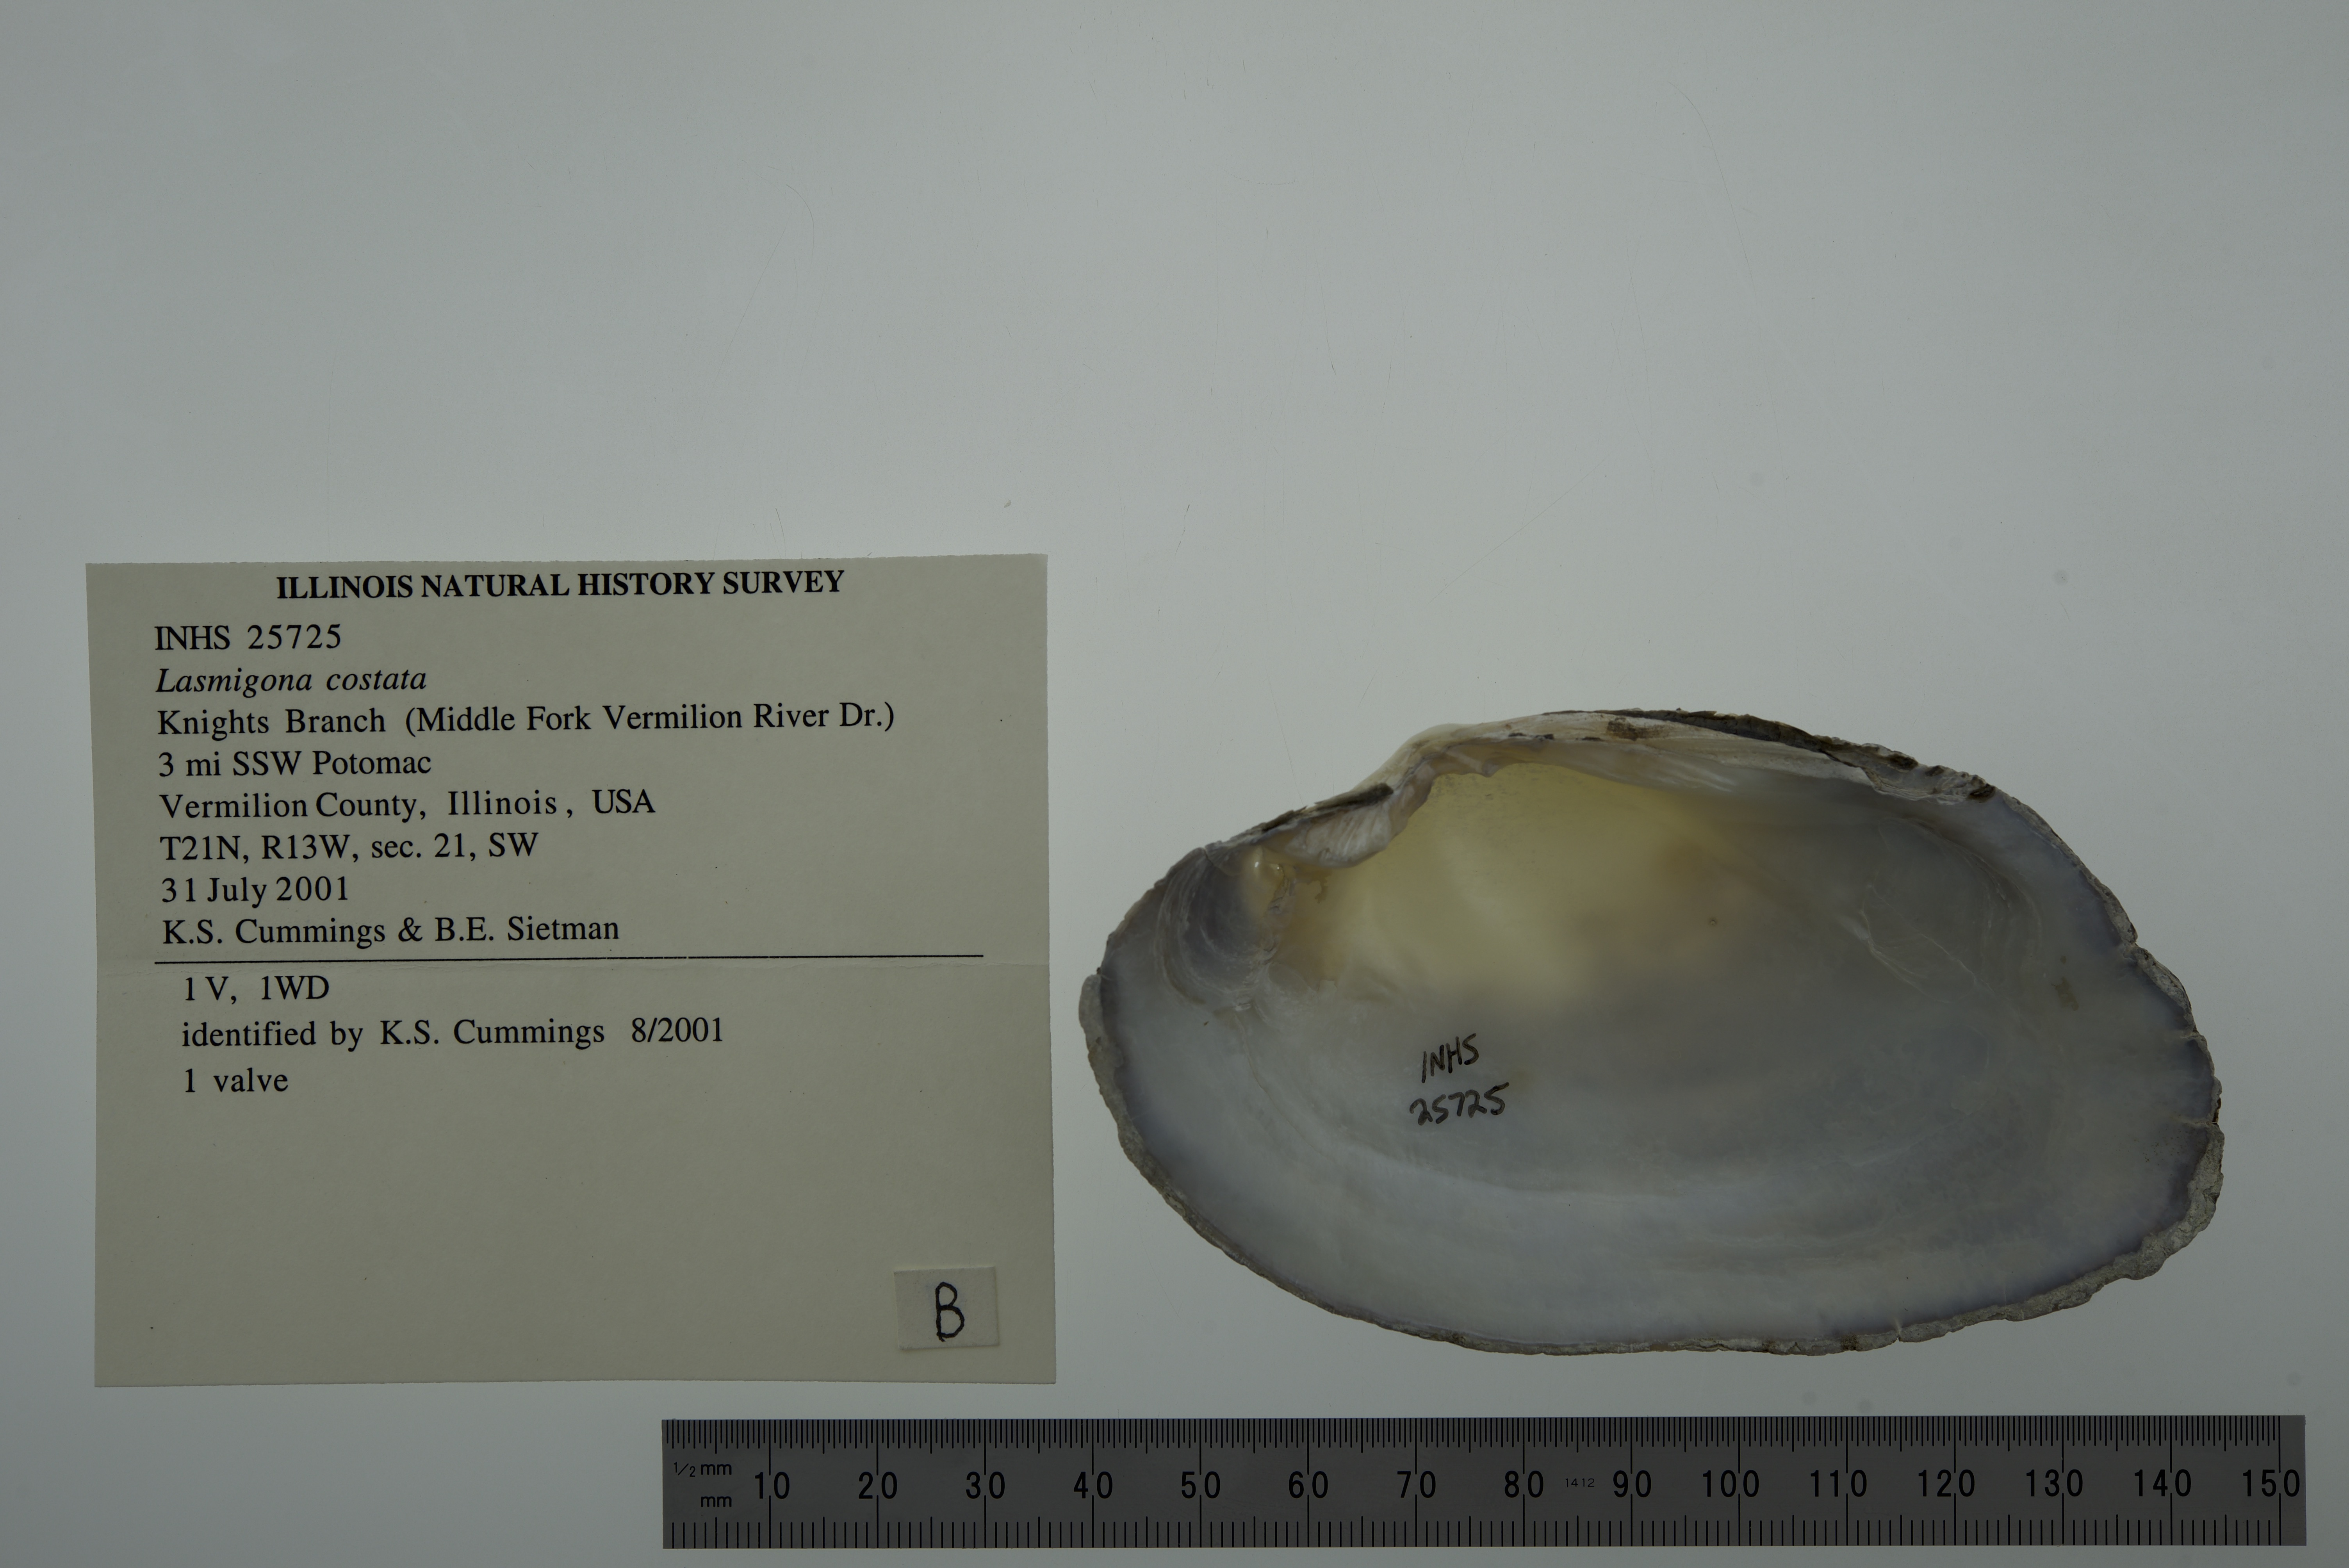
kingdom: Animalia
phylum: Mollusca
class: Bivalvia
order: Unionida
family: Unionidae
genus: Lasmigona
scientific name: Lasmigona costata
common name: Flutedshell
